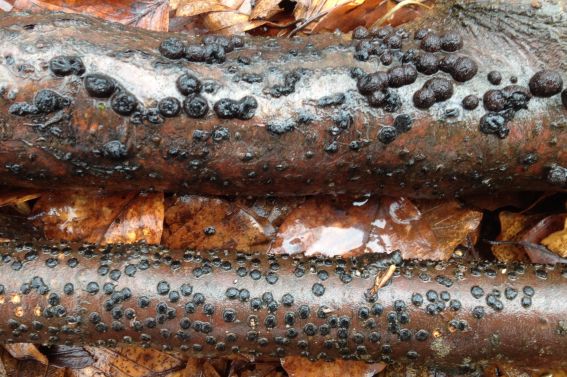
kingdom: Fungi
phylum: Ascomycota
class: Sordariomycetes
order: Xylariales
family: Diatrypaceae
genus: Diatrype
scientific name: Diatrype disciformis
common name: kant-kulskorpe
